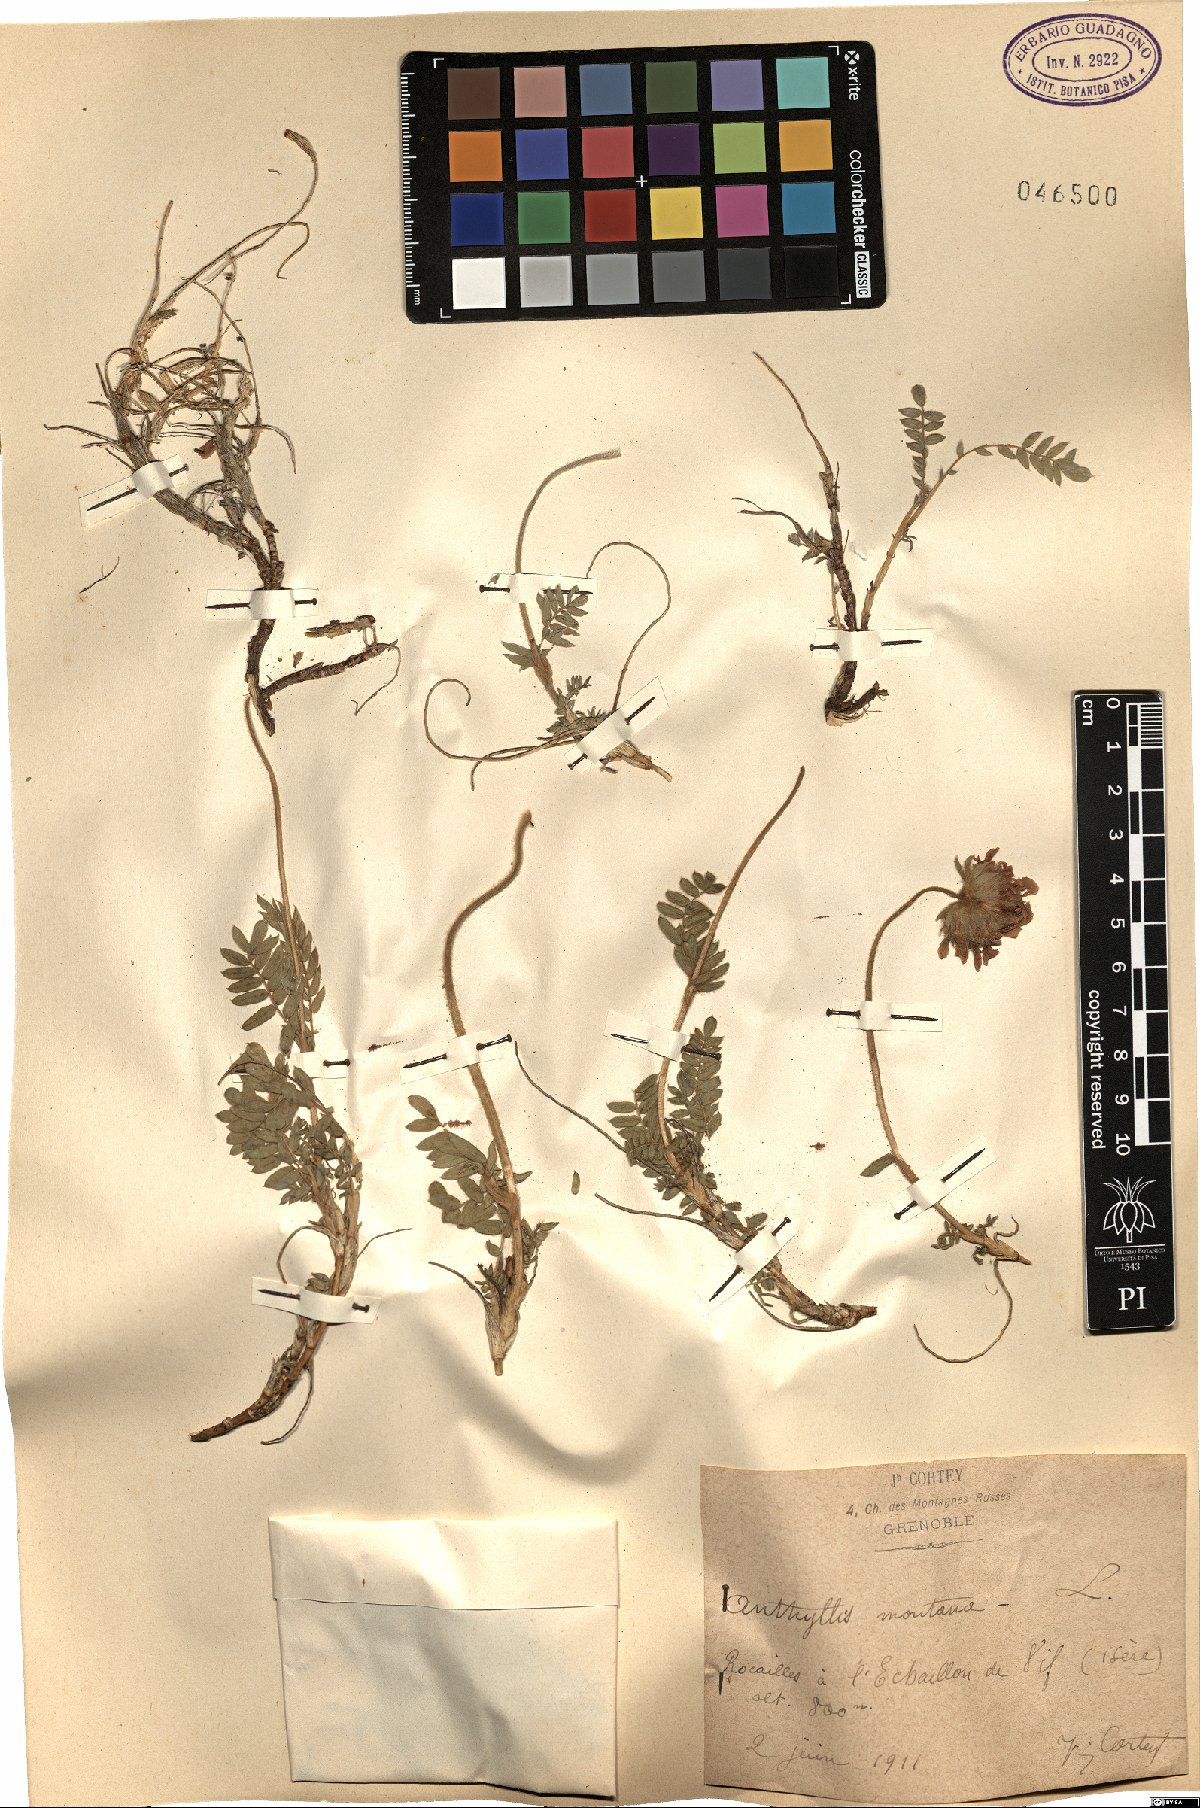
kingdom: Plantae
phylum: Tracheophyta
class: Magnoliopsida
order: Fabales
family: Fabaceae
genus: Anthyllis
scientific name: Anthyllis montana
